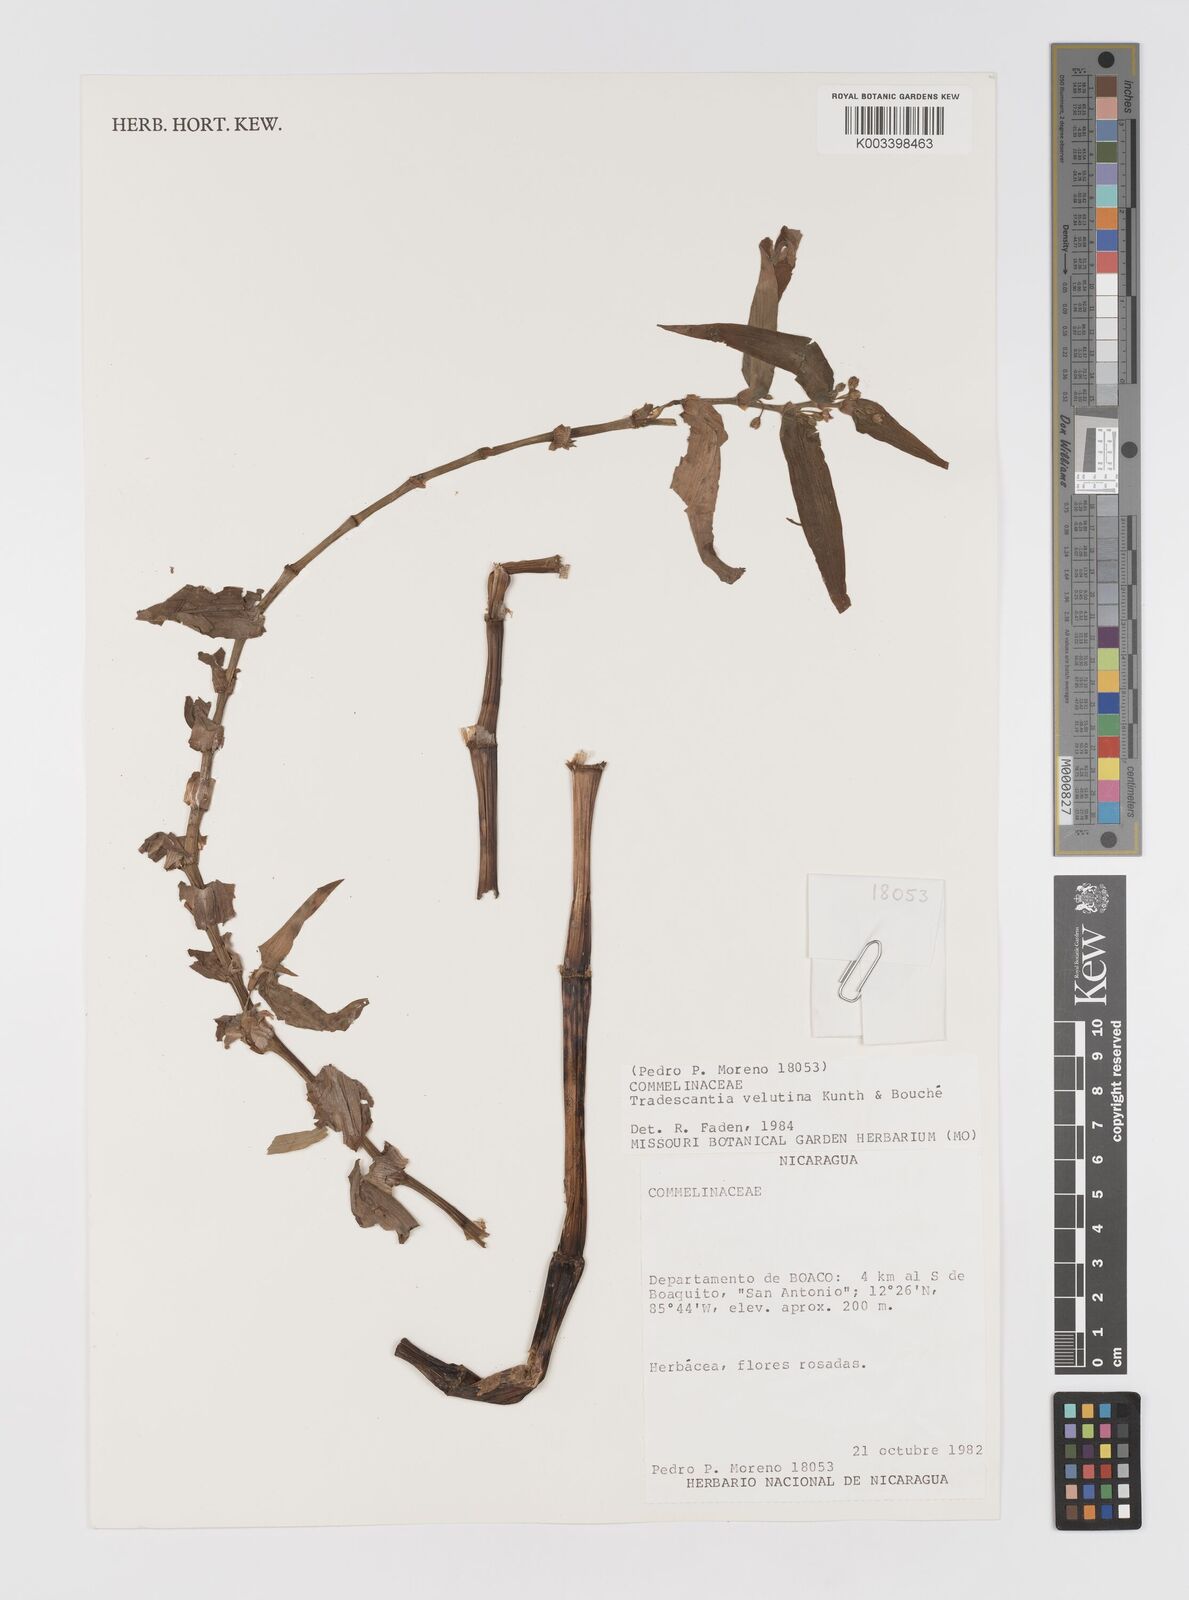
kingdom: Plantae
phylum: Tracheophyta
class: Liliopsida
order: Commelinales
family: Commelinaceae
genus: Tradescantia
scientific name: Tradescantia velutina
